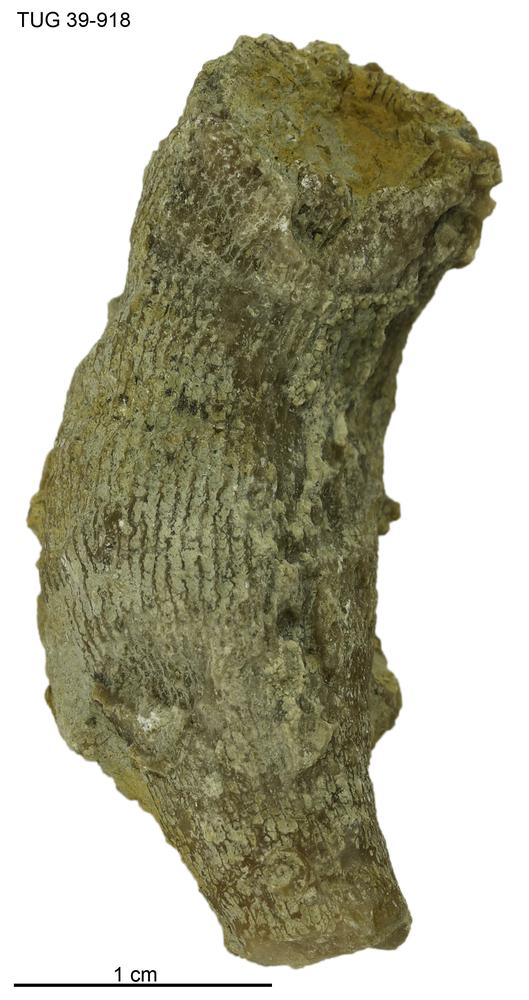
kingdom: Animalia
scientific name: Animalia
